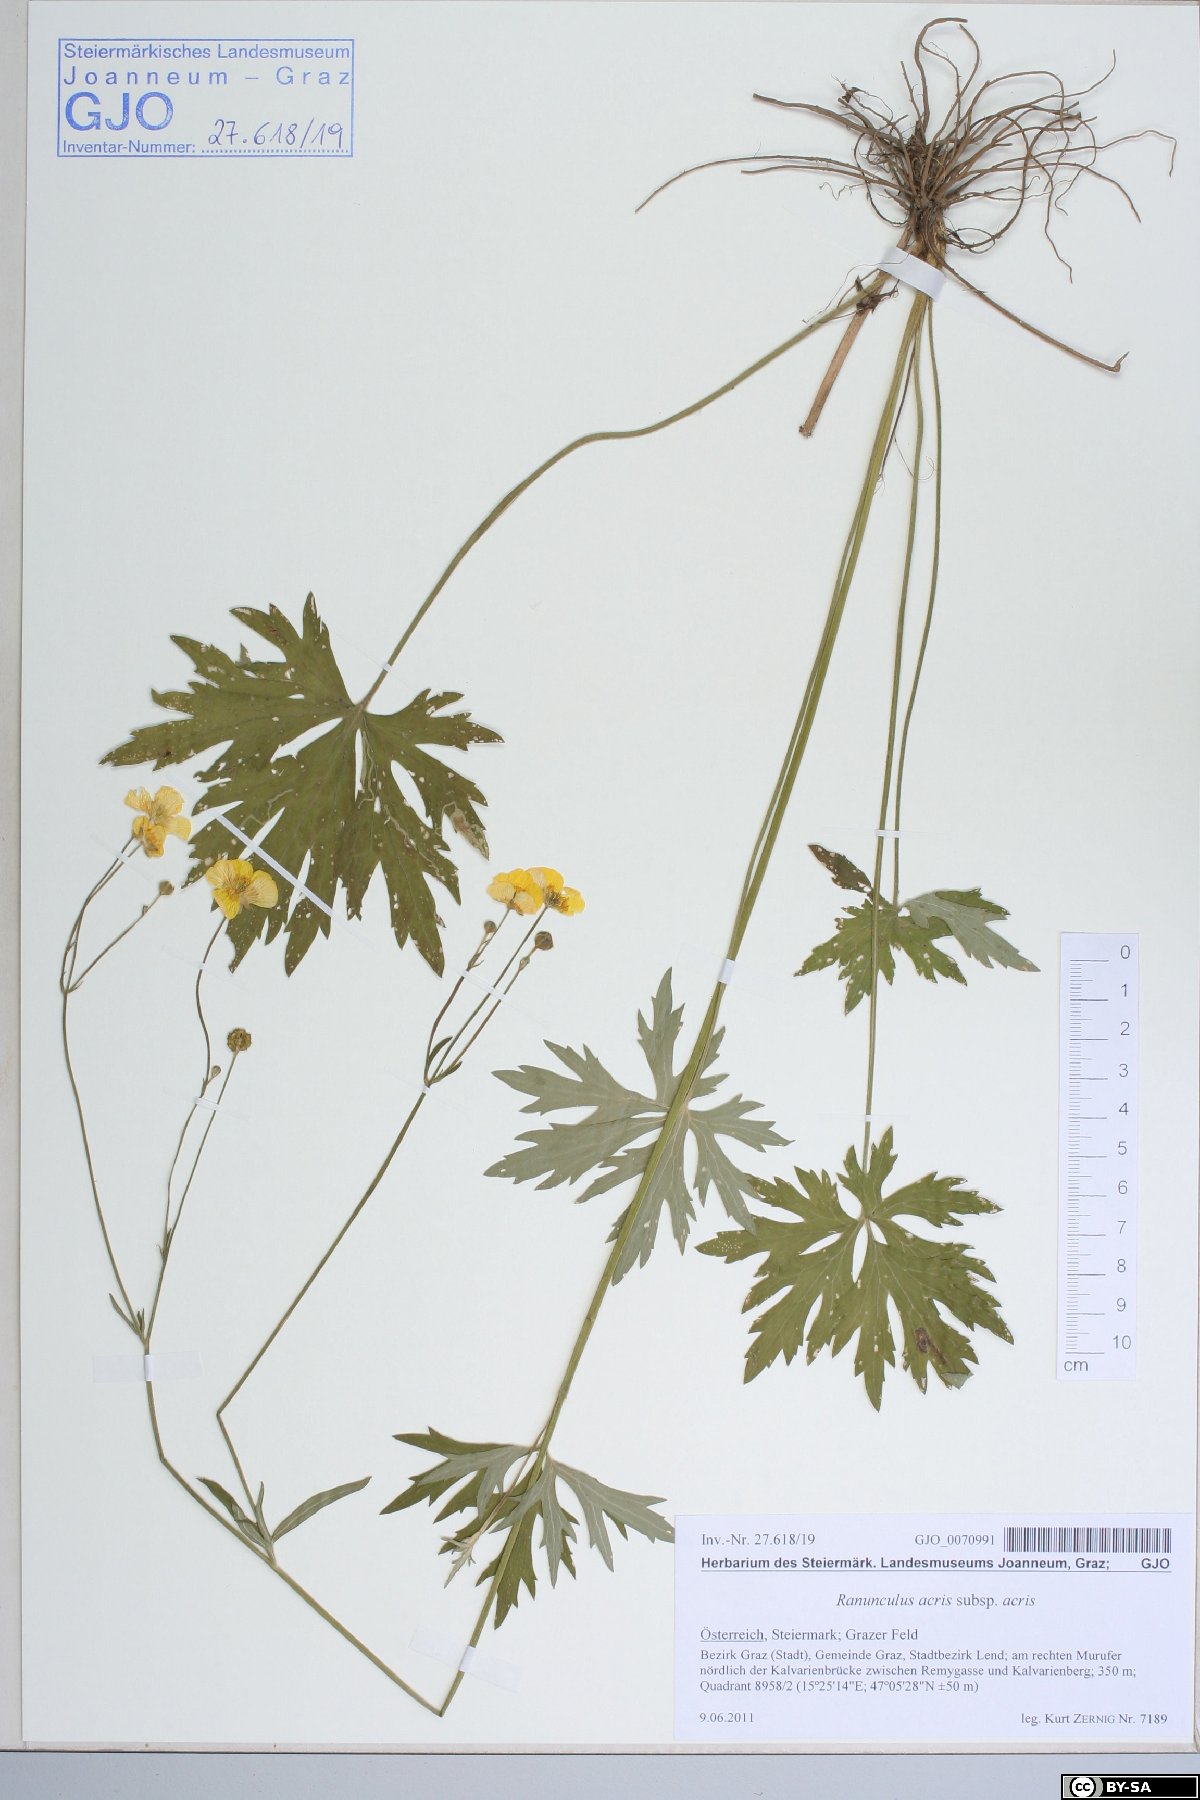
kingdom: Plantae
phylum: Tracheophyta
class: Magnoliopsida
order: Ranunculales
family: Ranunculaceae
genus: Ranunculus
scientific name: Ranunculus acris
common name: Meadow buttercup
